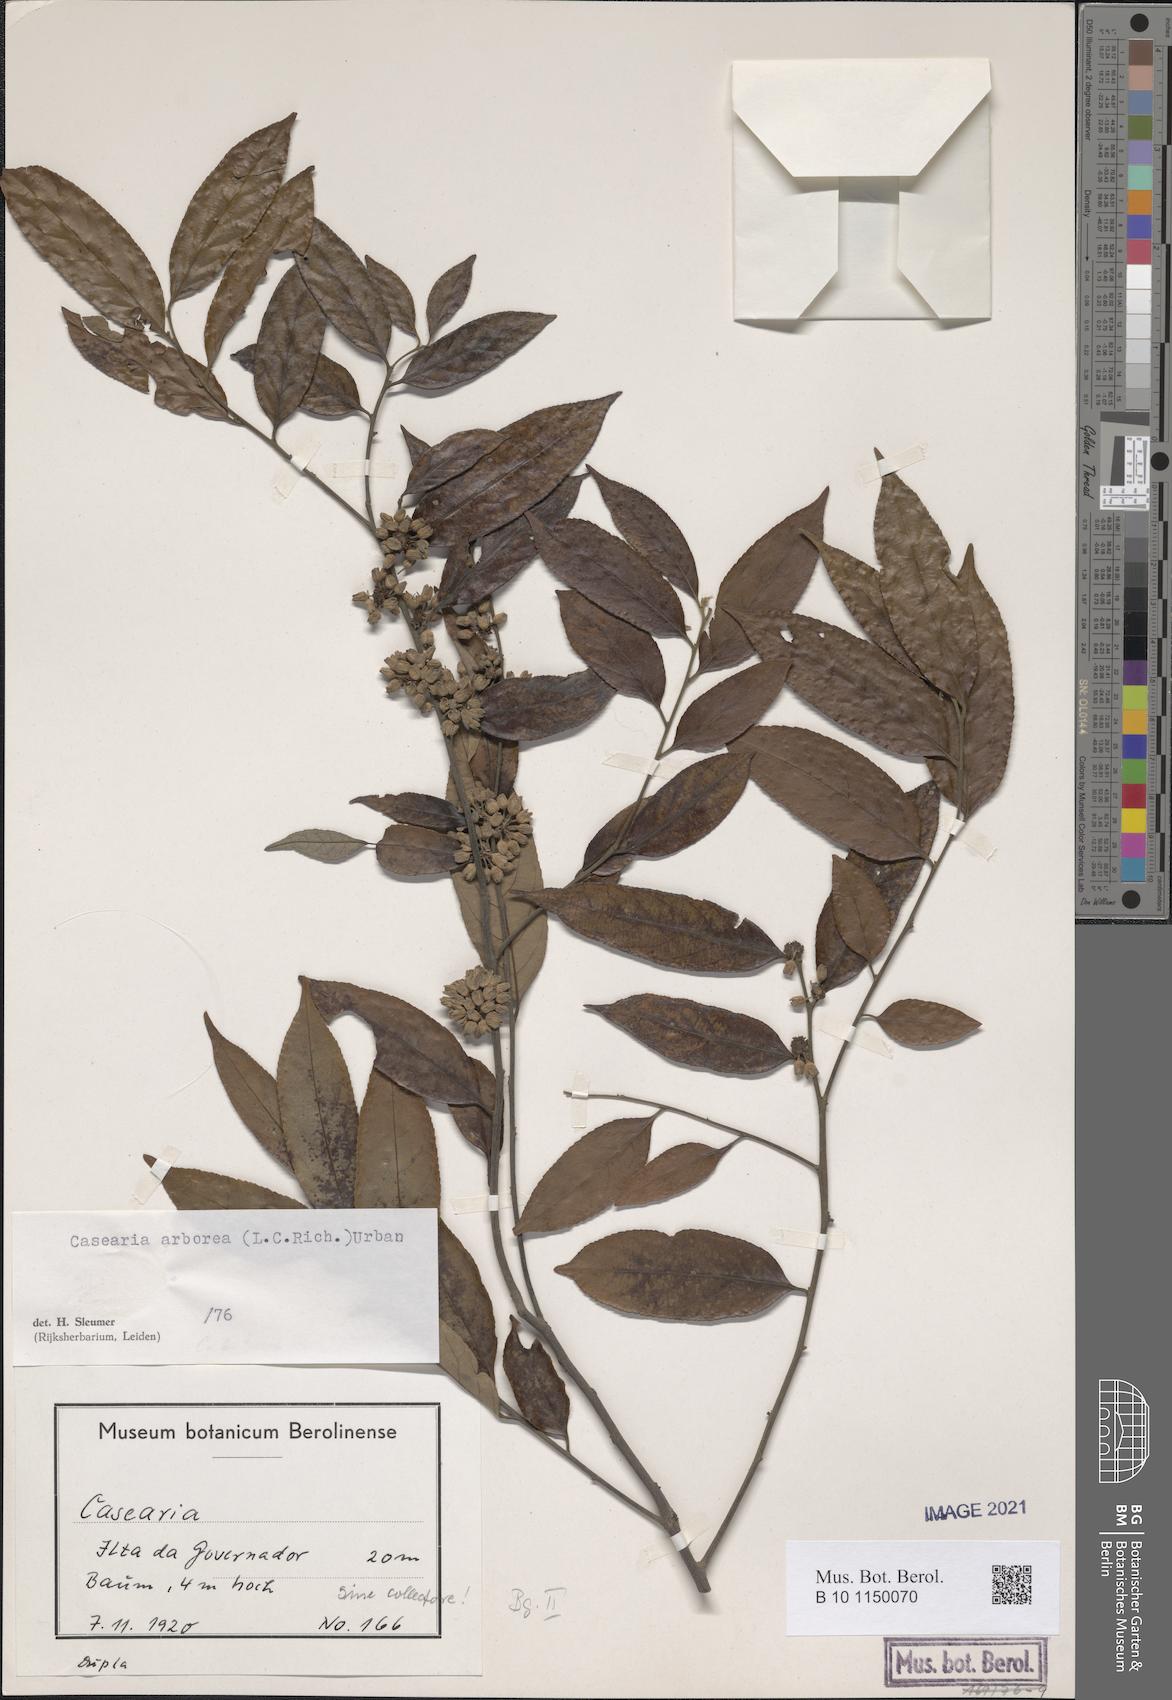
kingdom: Plantae
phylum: Tracheophyta
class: Magnoliopsida
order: Malpighiales
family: Salicaceae
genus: Casearia
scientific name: Casearia arborea
